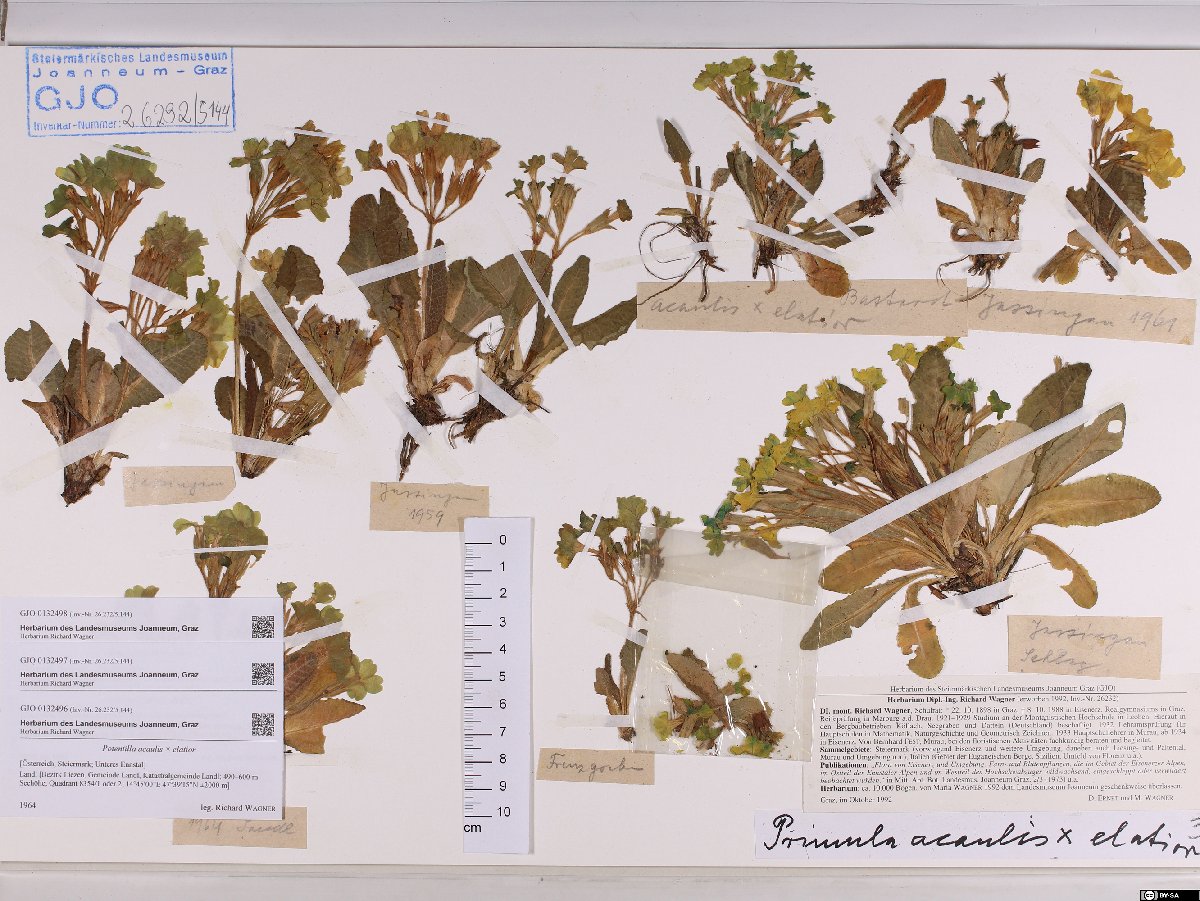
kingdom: Plantae
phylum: Tracheophyta
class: Magnoliopsida
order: Ericales
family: Primulaceae
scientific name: Primulaceae
